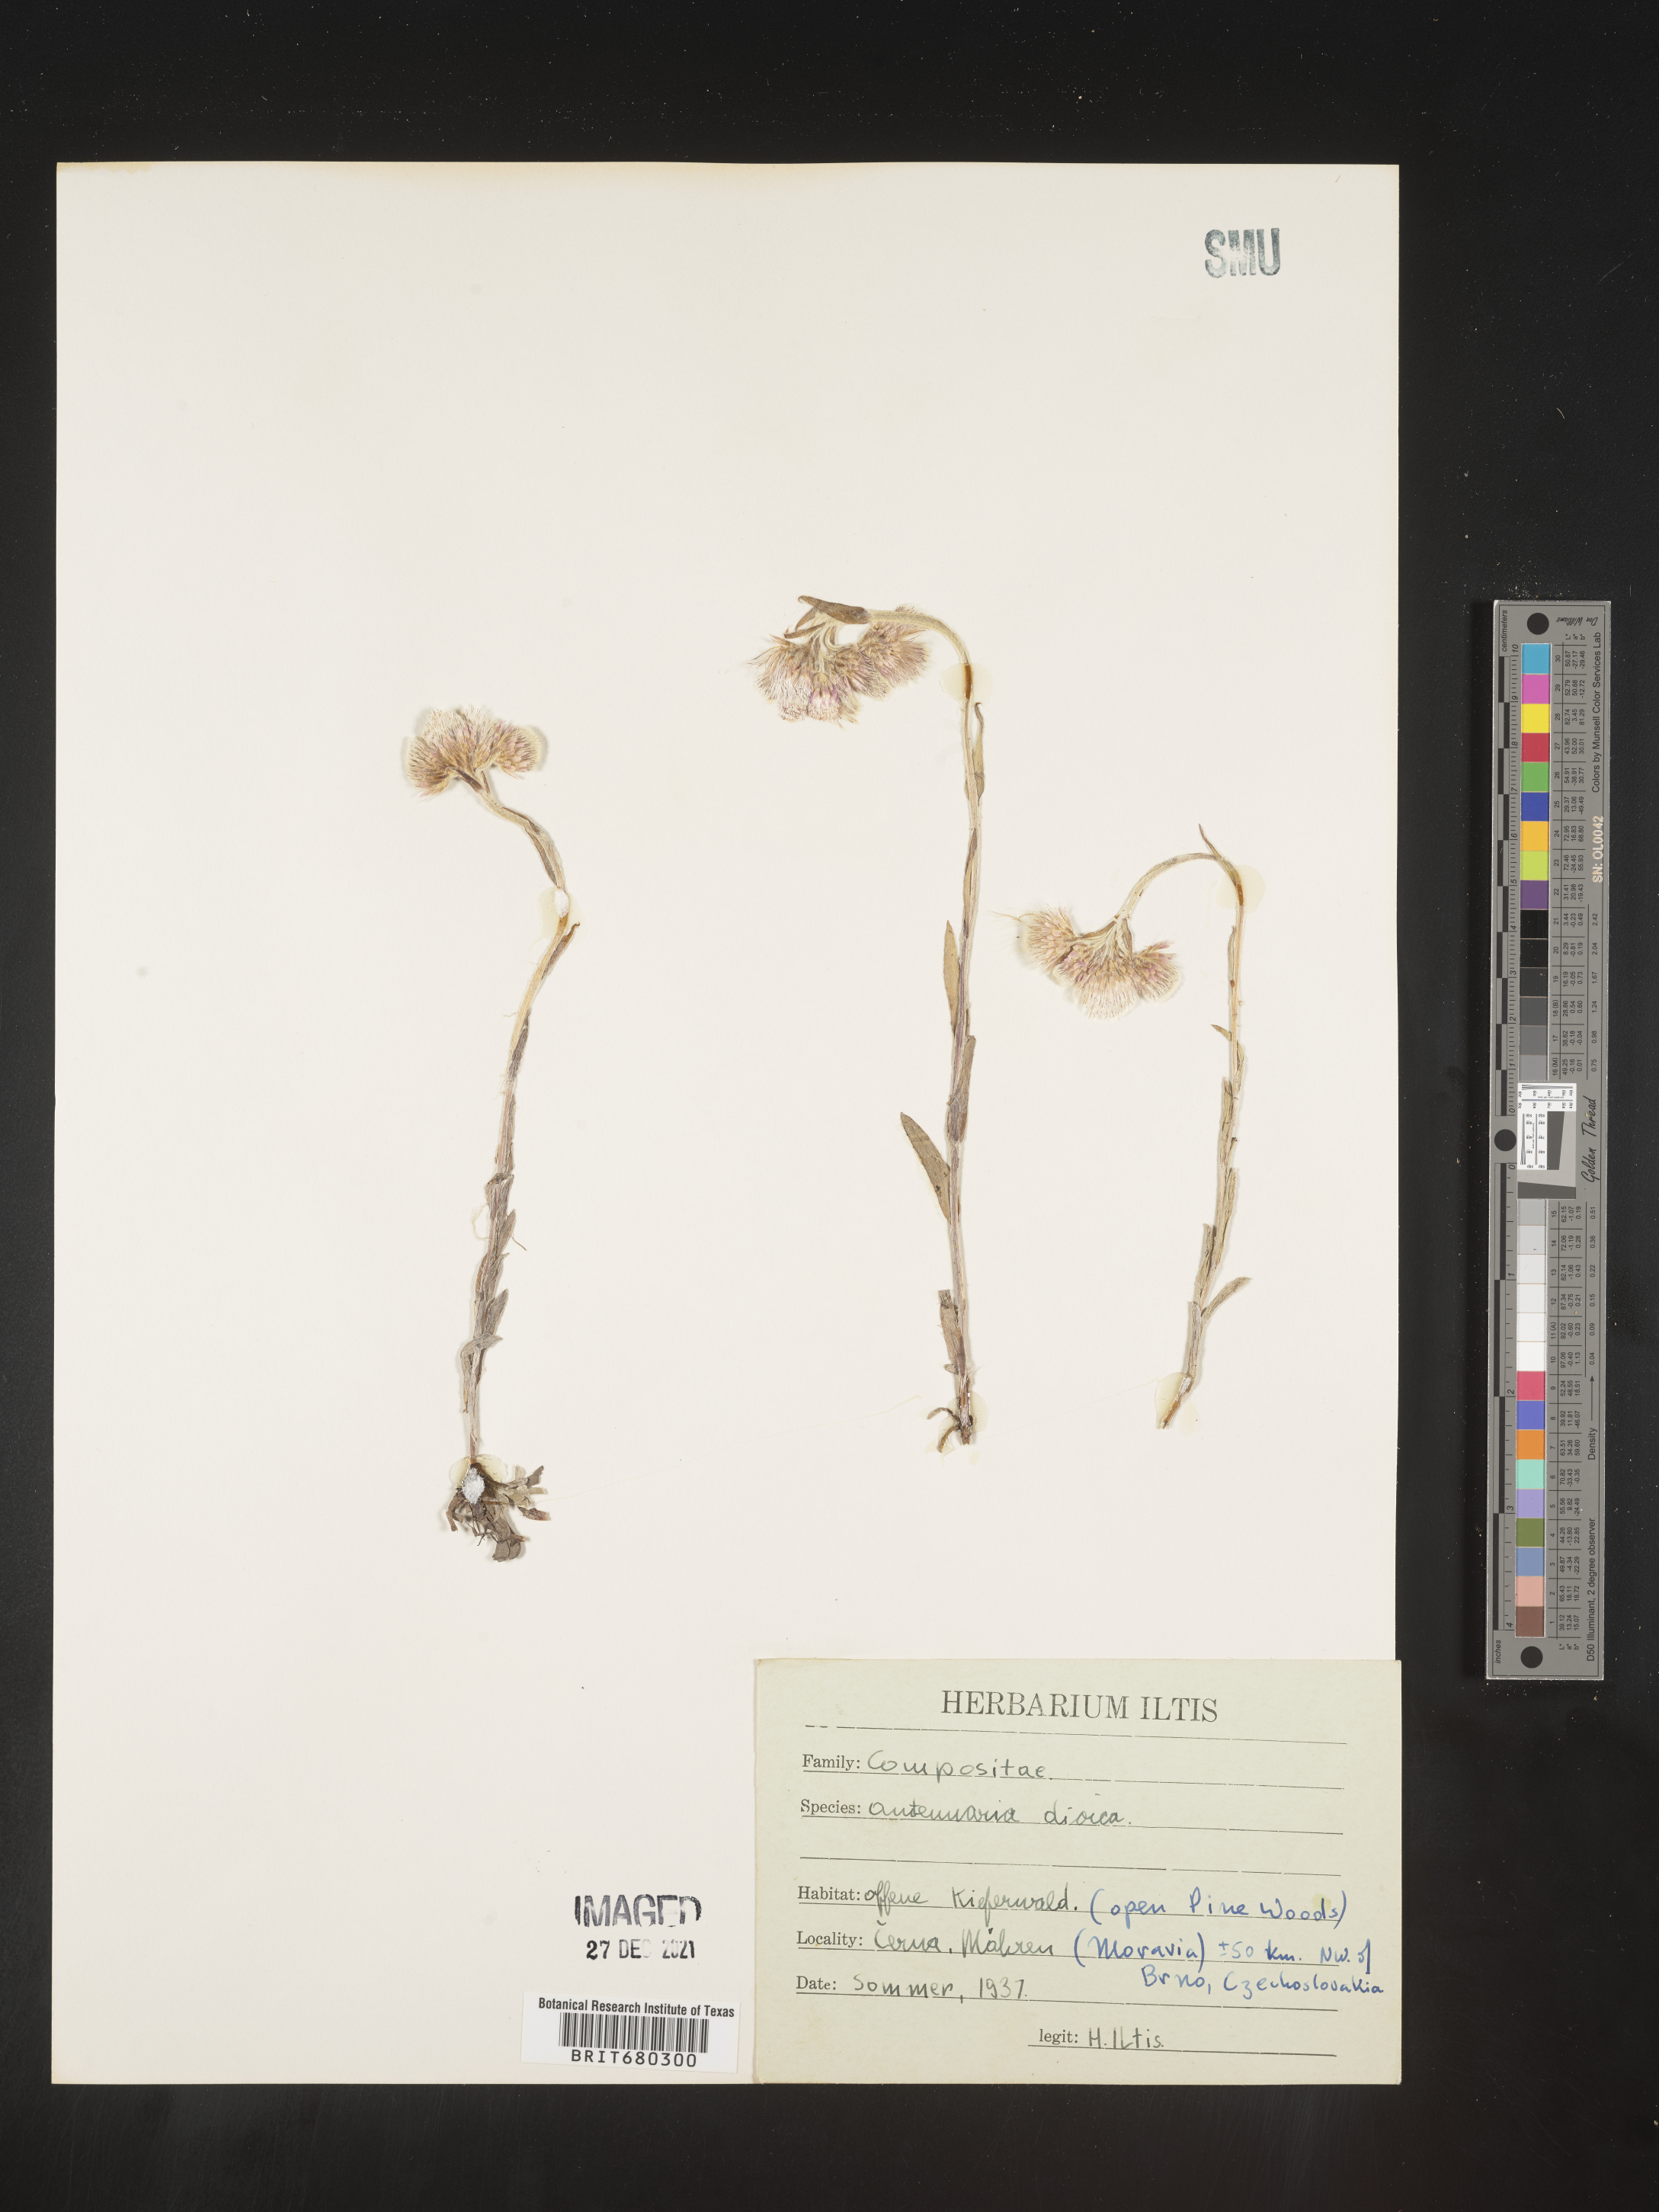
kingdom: Plantae
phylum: Tracheophyta
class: Magnoliopsida
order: Asterales
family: Asteraceae
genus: Antennaria
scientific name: Antennaria dioica
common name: Mountain everlasting
